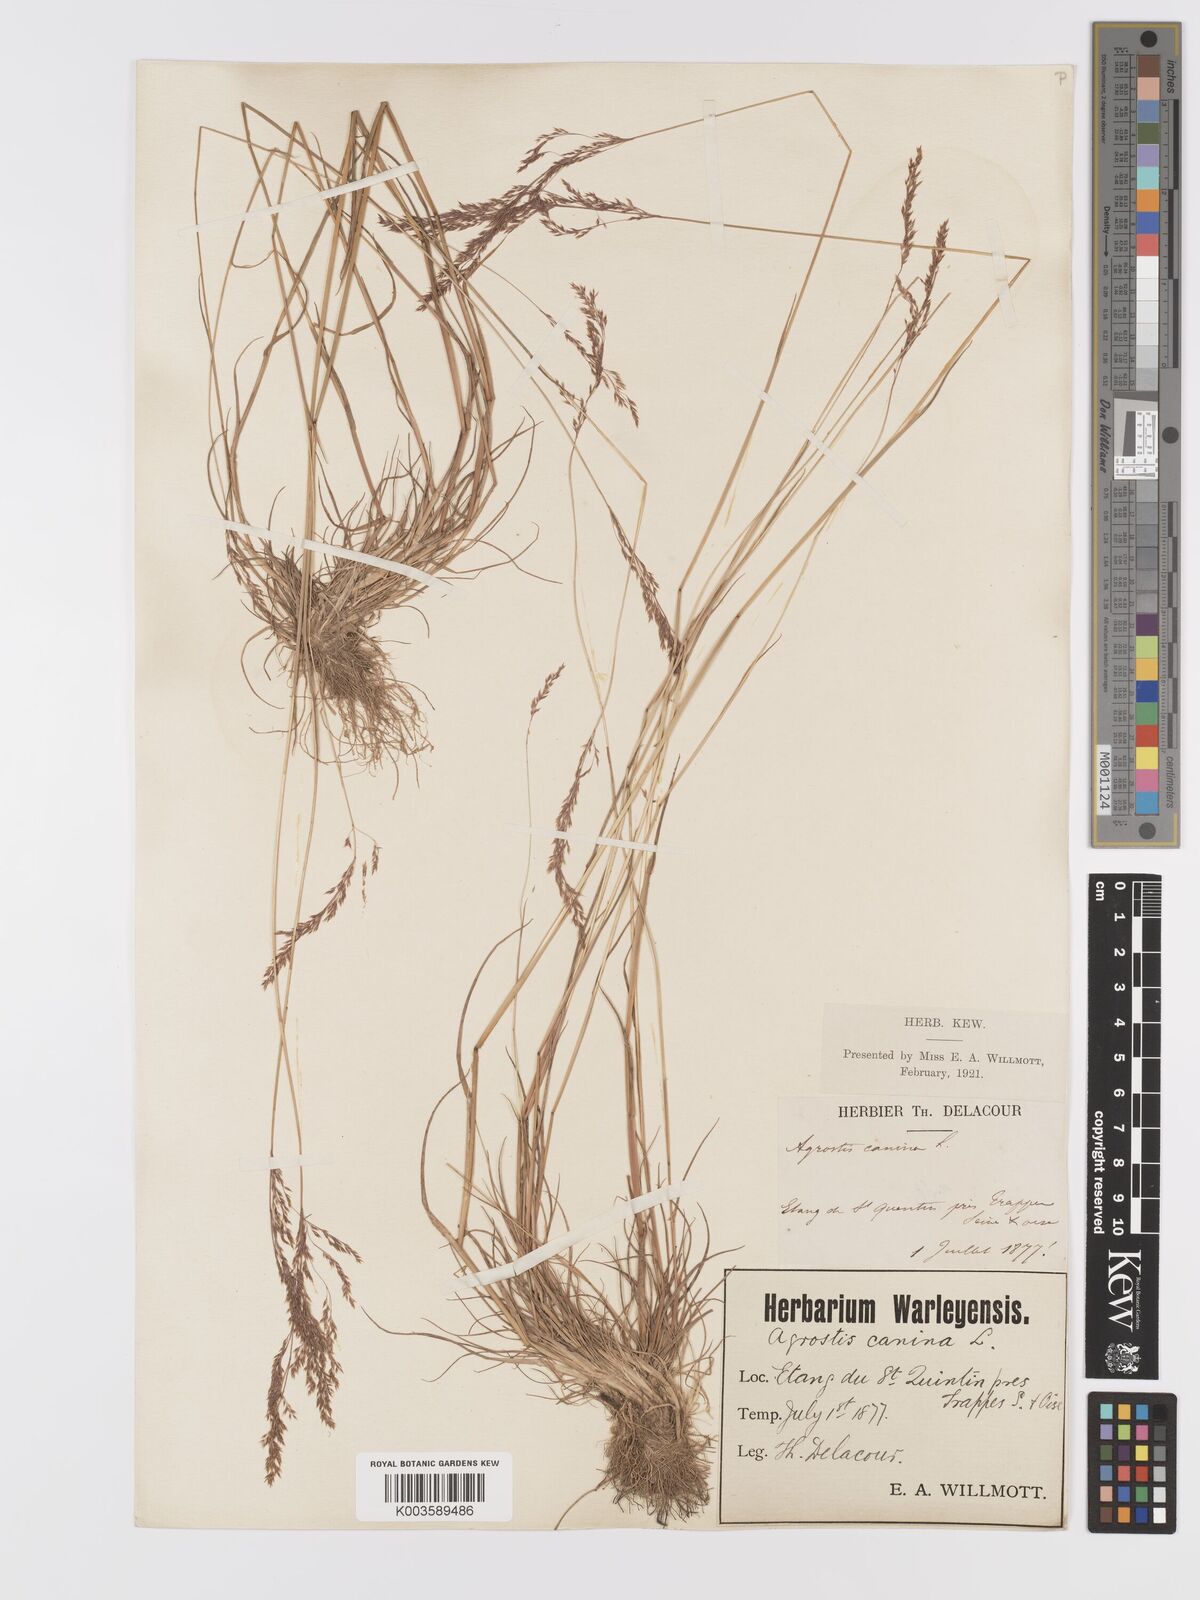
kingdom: Plantae
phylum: Tracheophyta
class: Liliopsida
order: Poales
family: Poaceae
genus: Agrostis
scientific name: Agrostis canina
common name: Velvet bent
